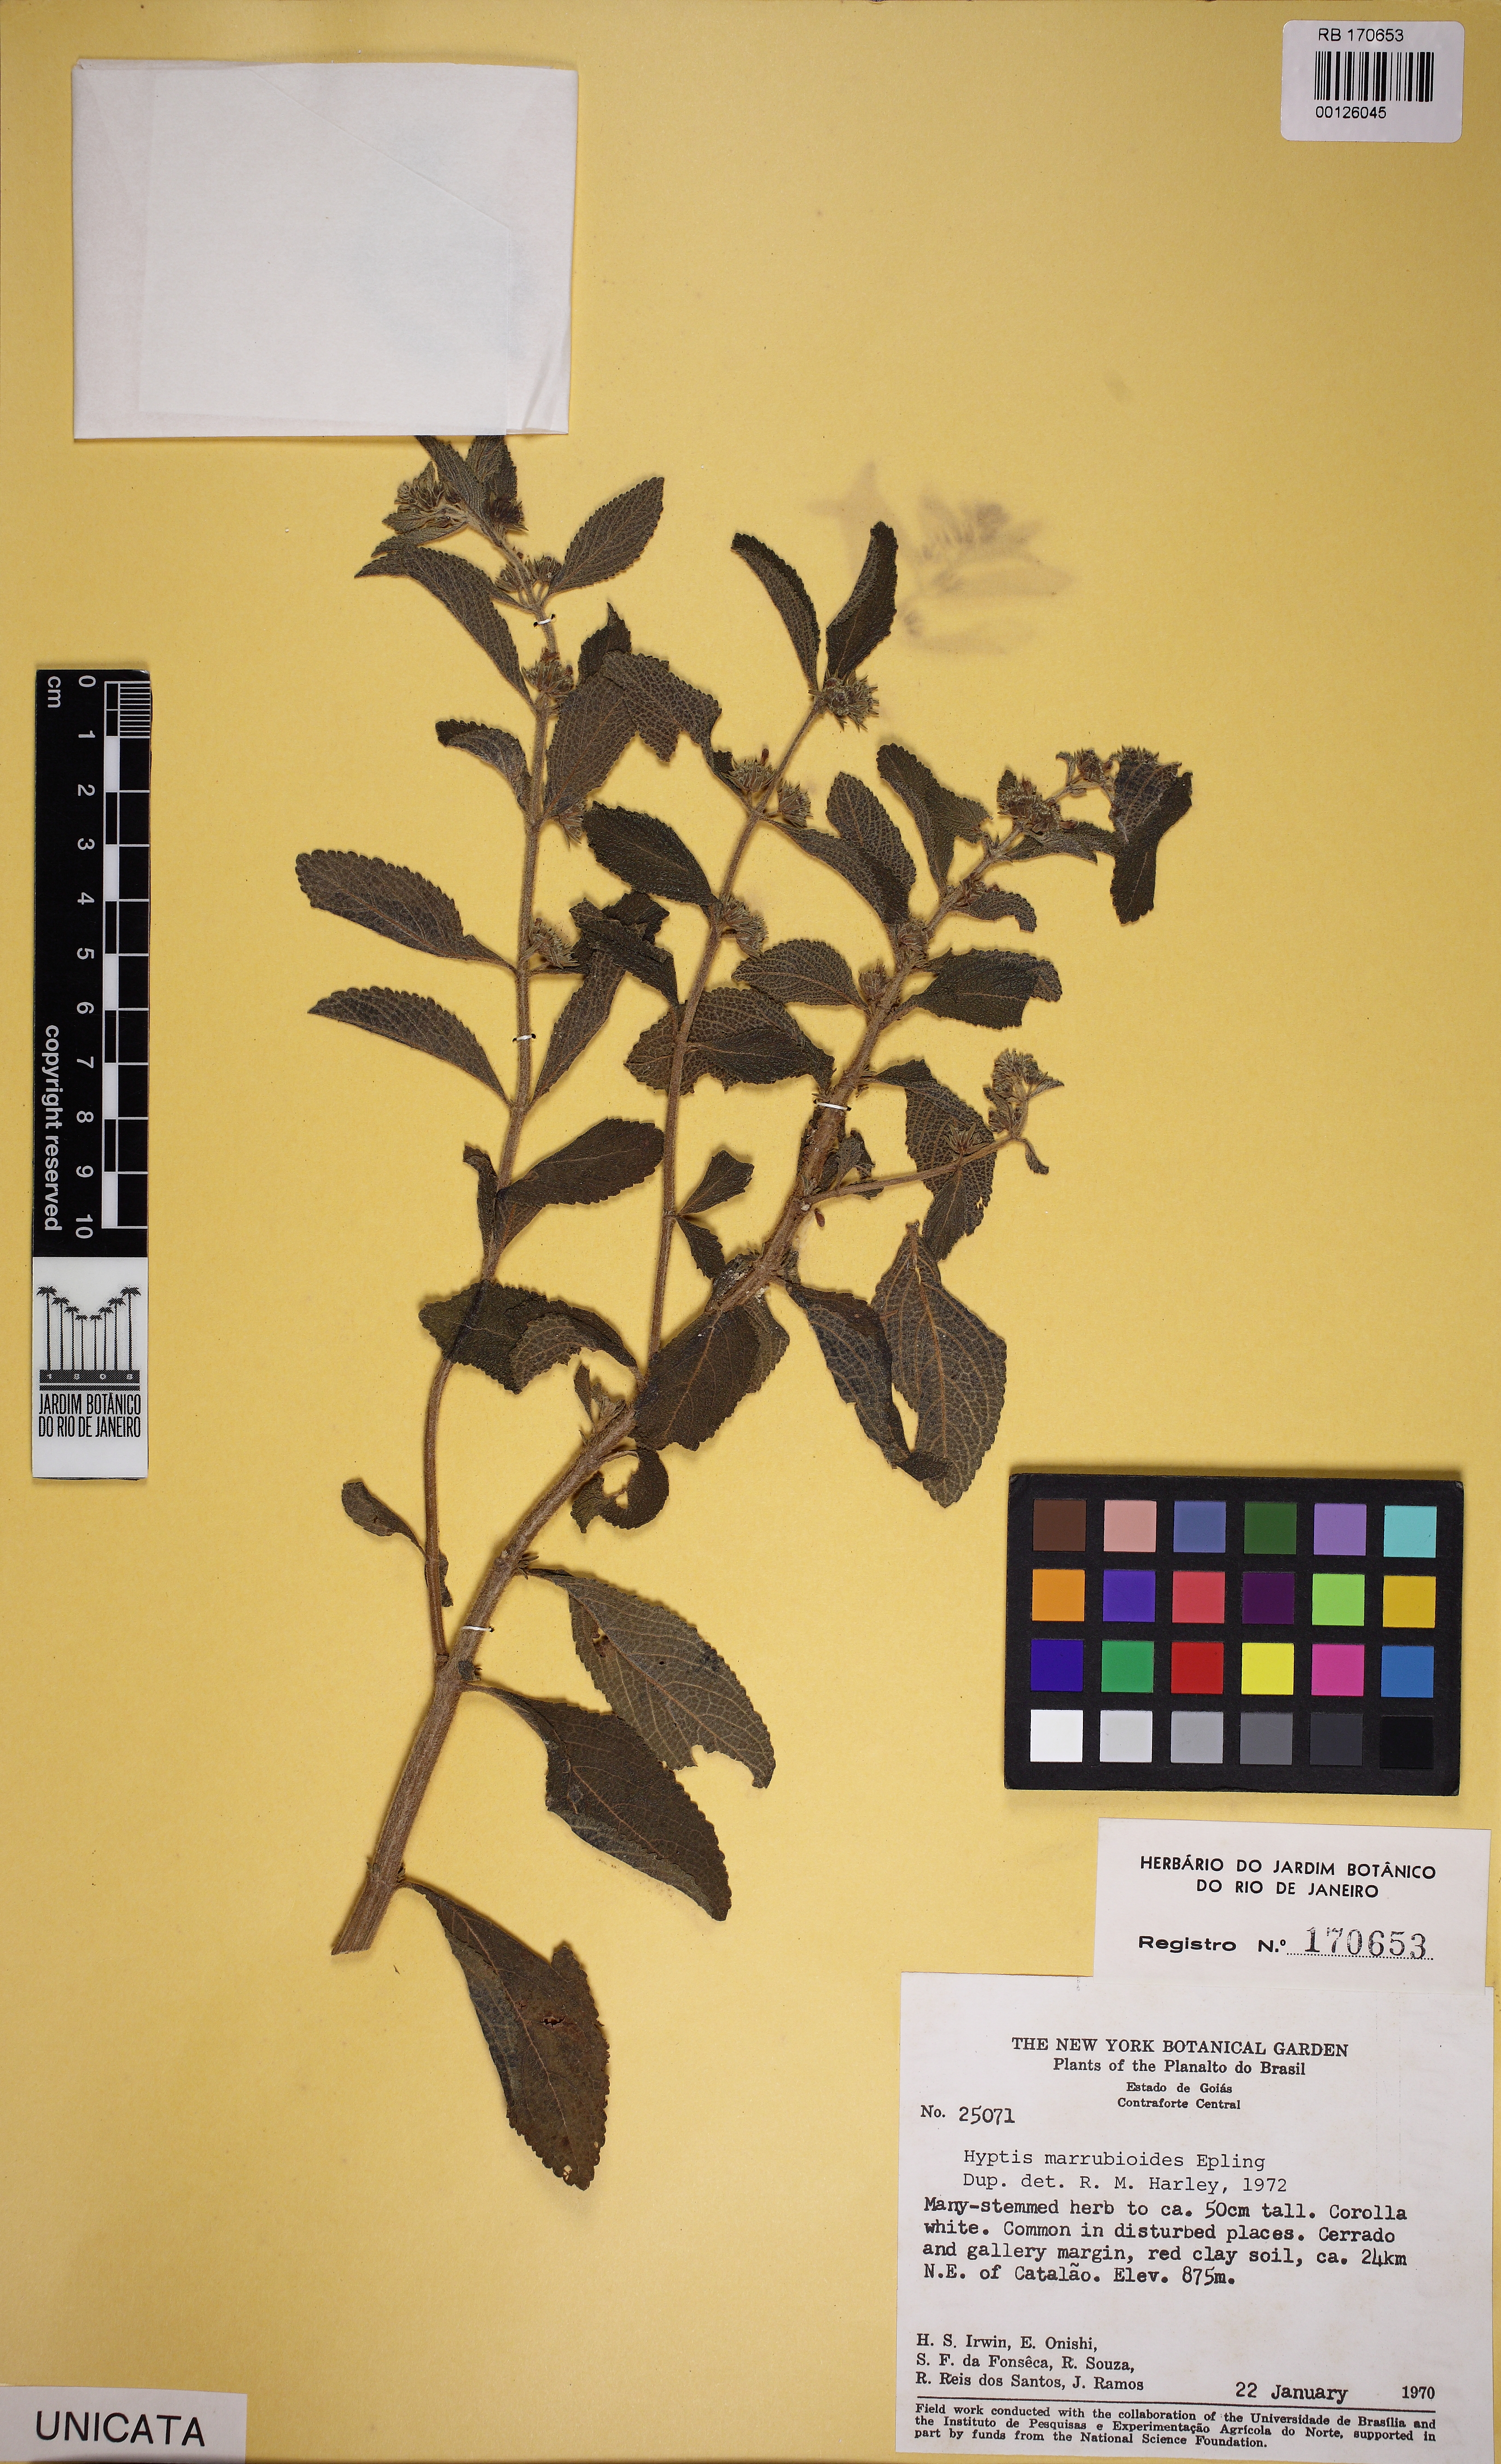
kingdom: Plantae
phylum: Tracheophyta
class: Magnoliopsida
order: Lamiales
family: Lamiaceae
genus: Hyptis
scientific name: Hyptis marrubioides
